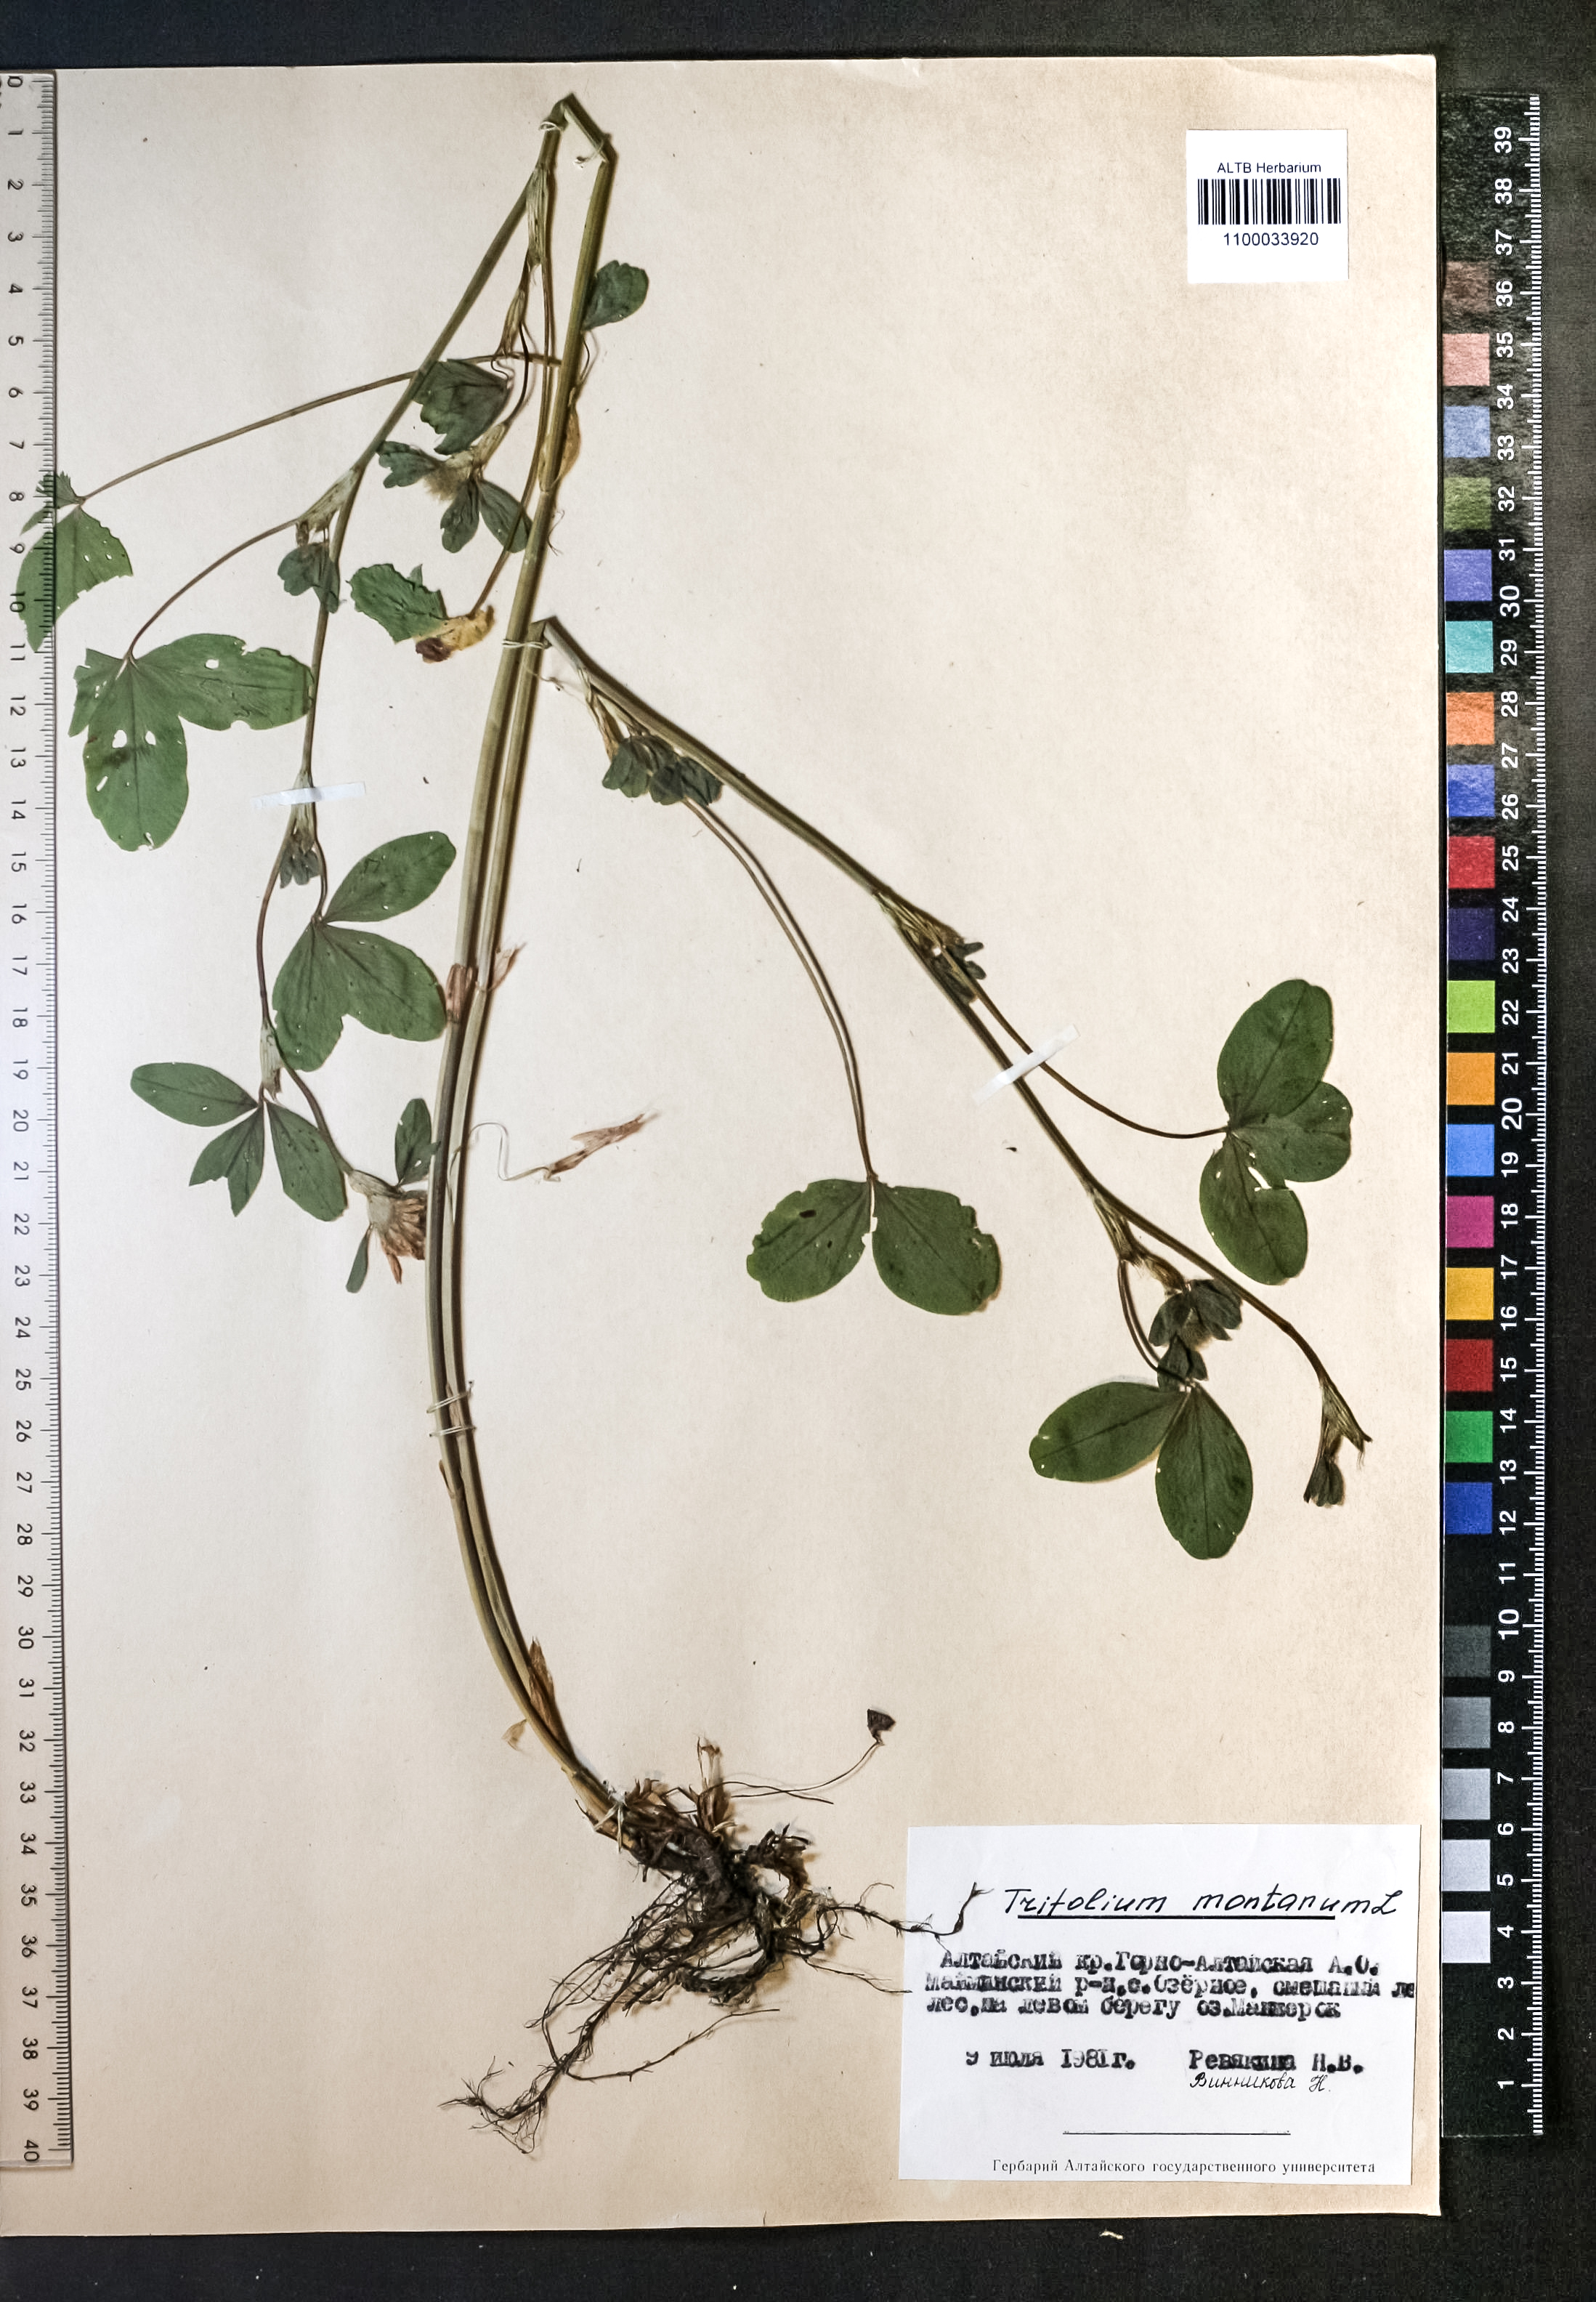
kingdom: Plantae
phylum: Tracheophyta
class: Magnoliopsida
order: Fabales
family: Fabaceae
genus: Trifolium
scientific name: Trifolium montanum
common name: Mountain clover
